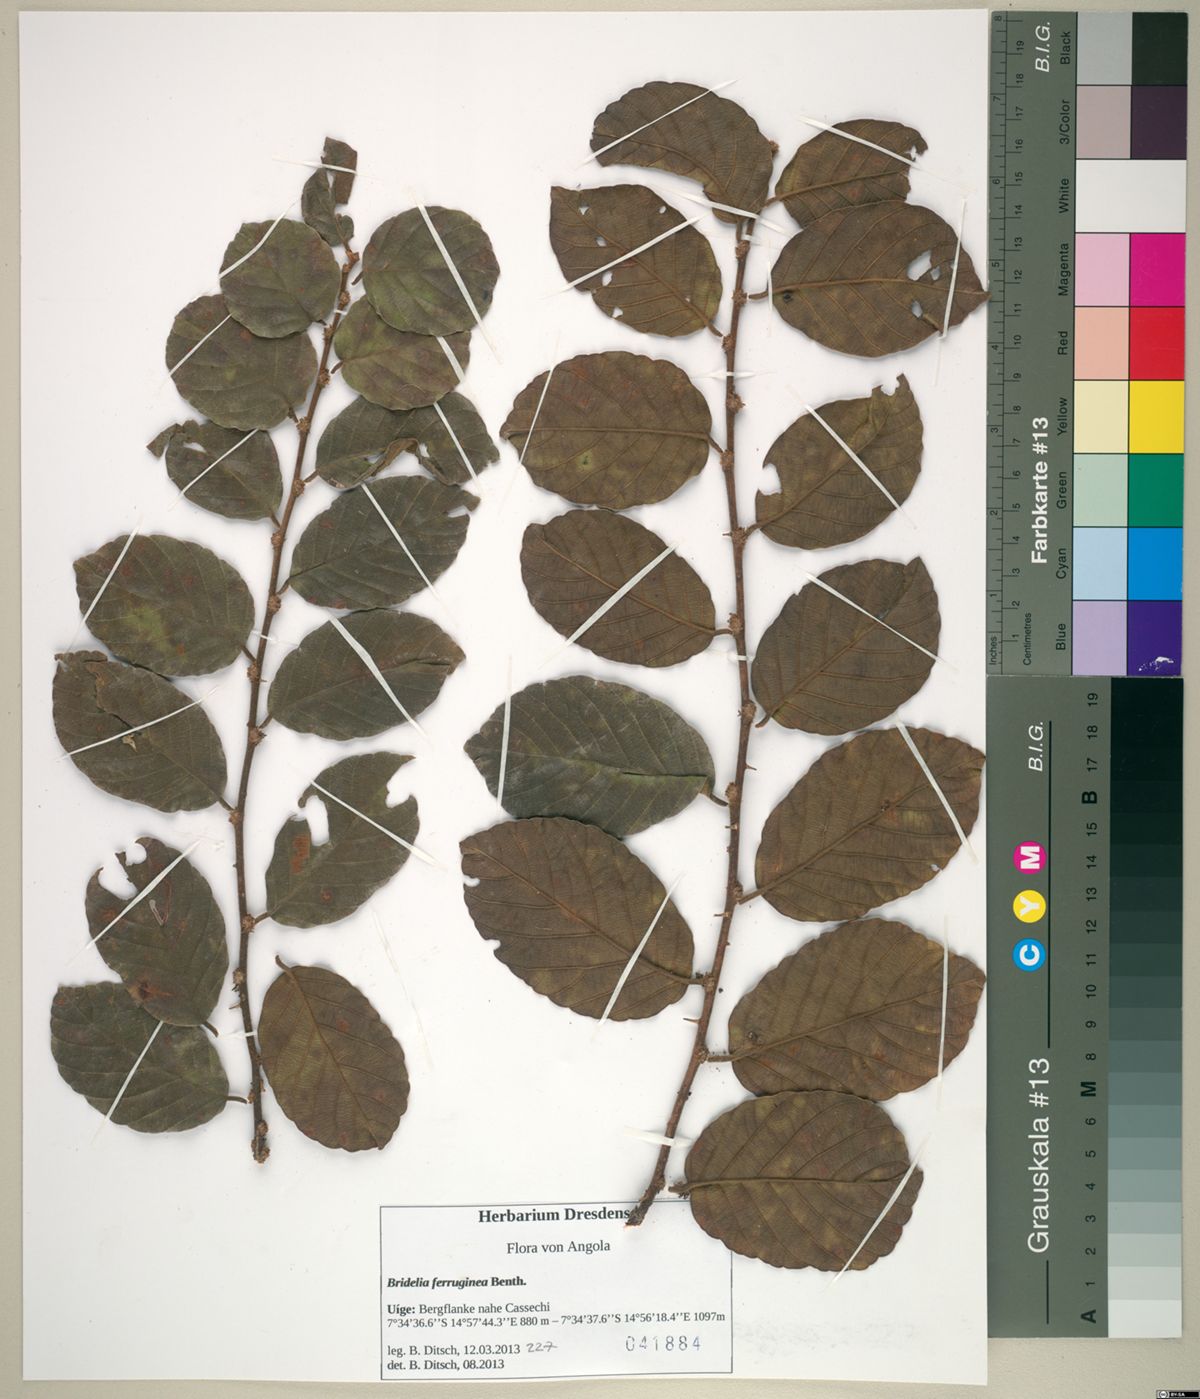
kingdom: Plantae
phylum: Tracheophyta
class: Magnoliopsida
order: Malpighiales
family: Phyllanthaceae
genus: Bridelia
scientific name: Bridelia ferruginea
